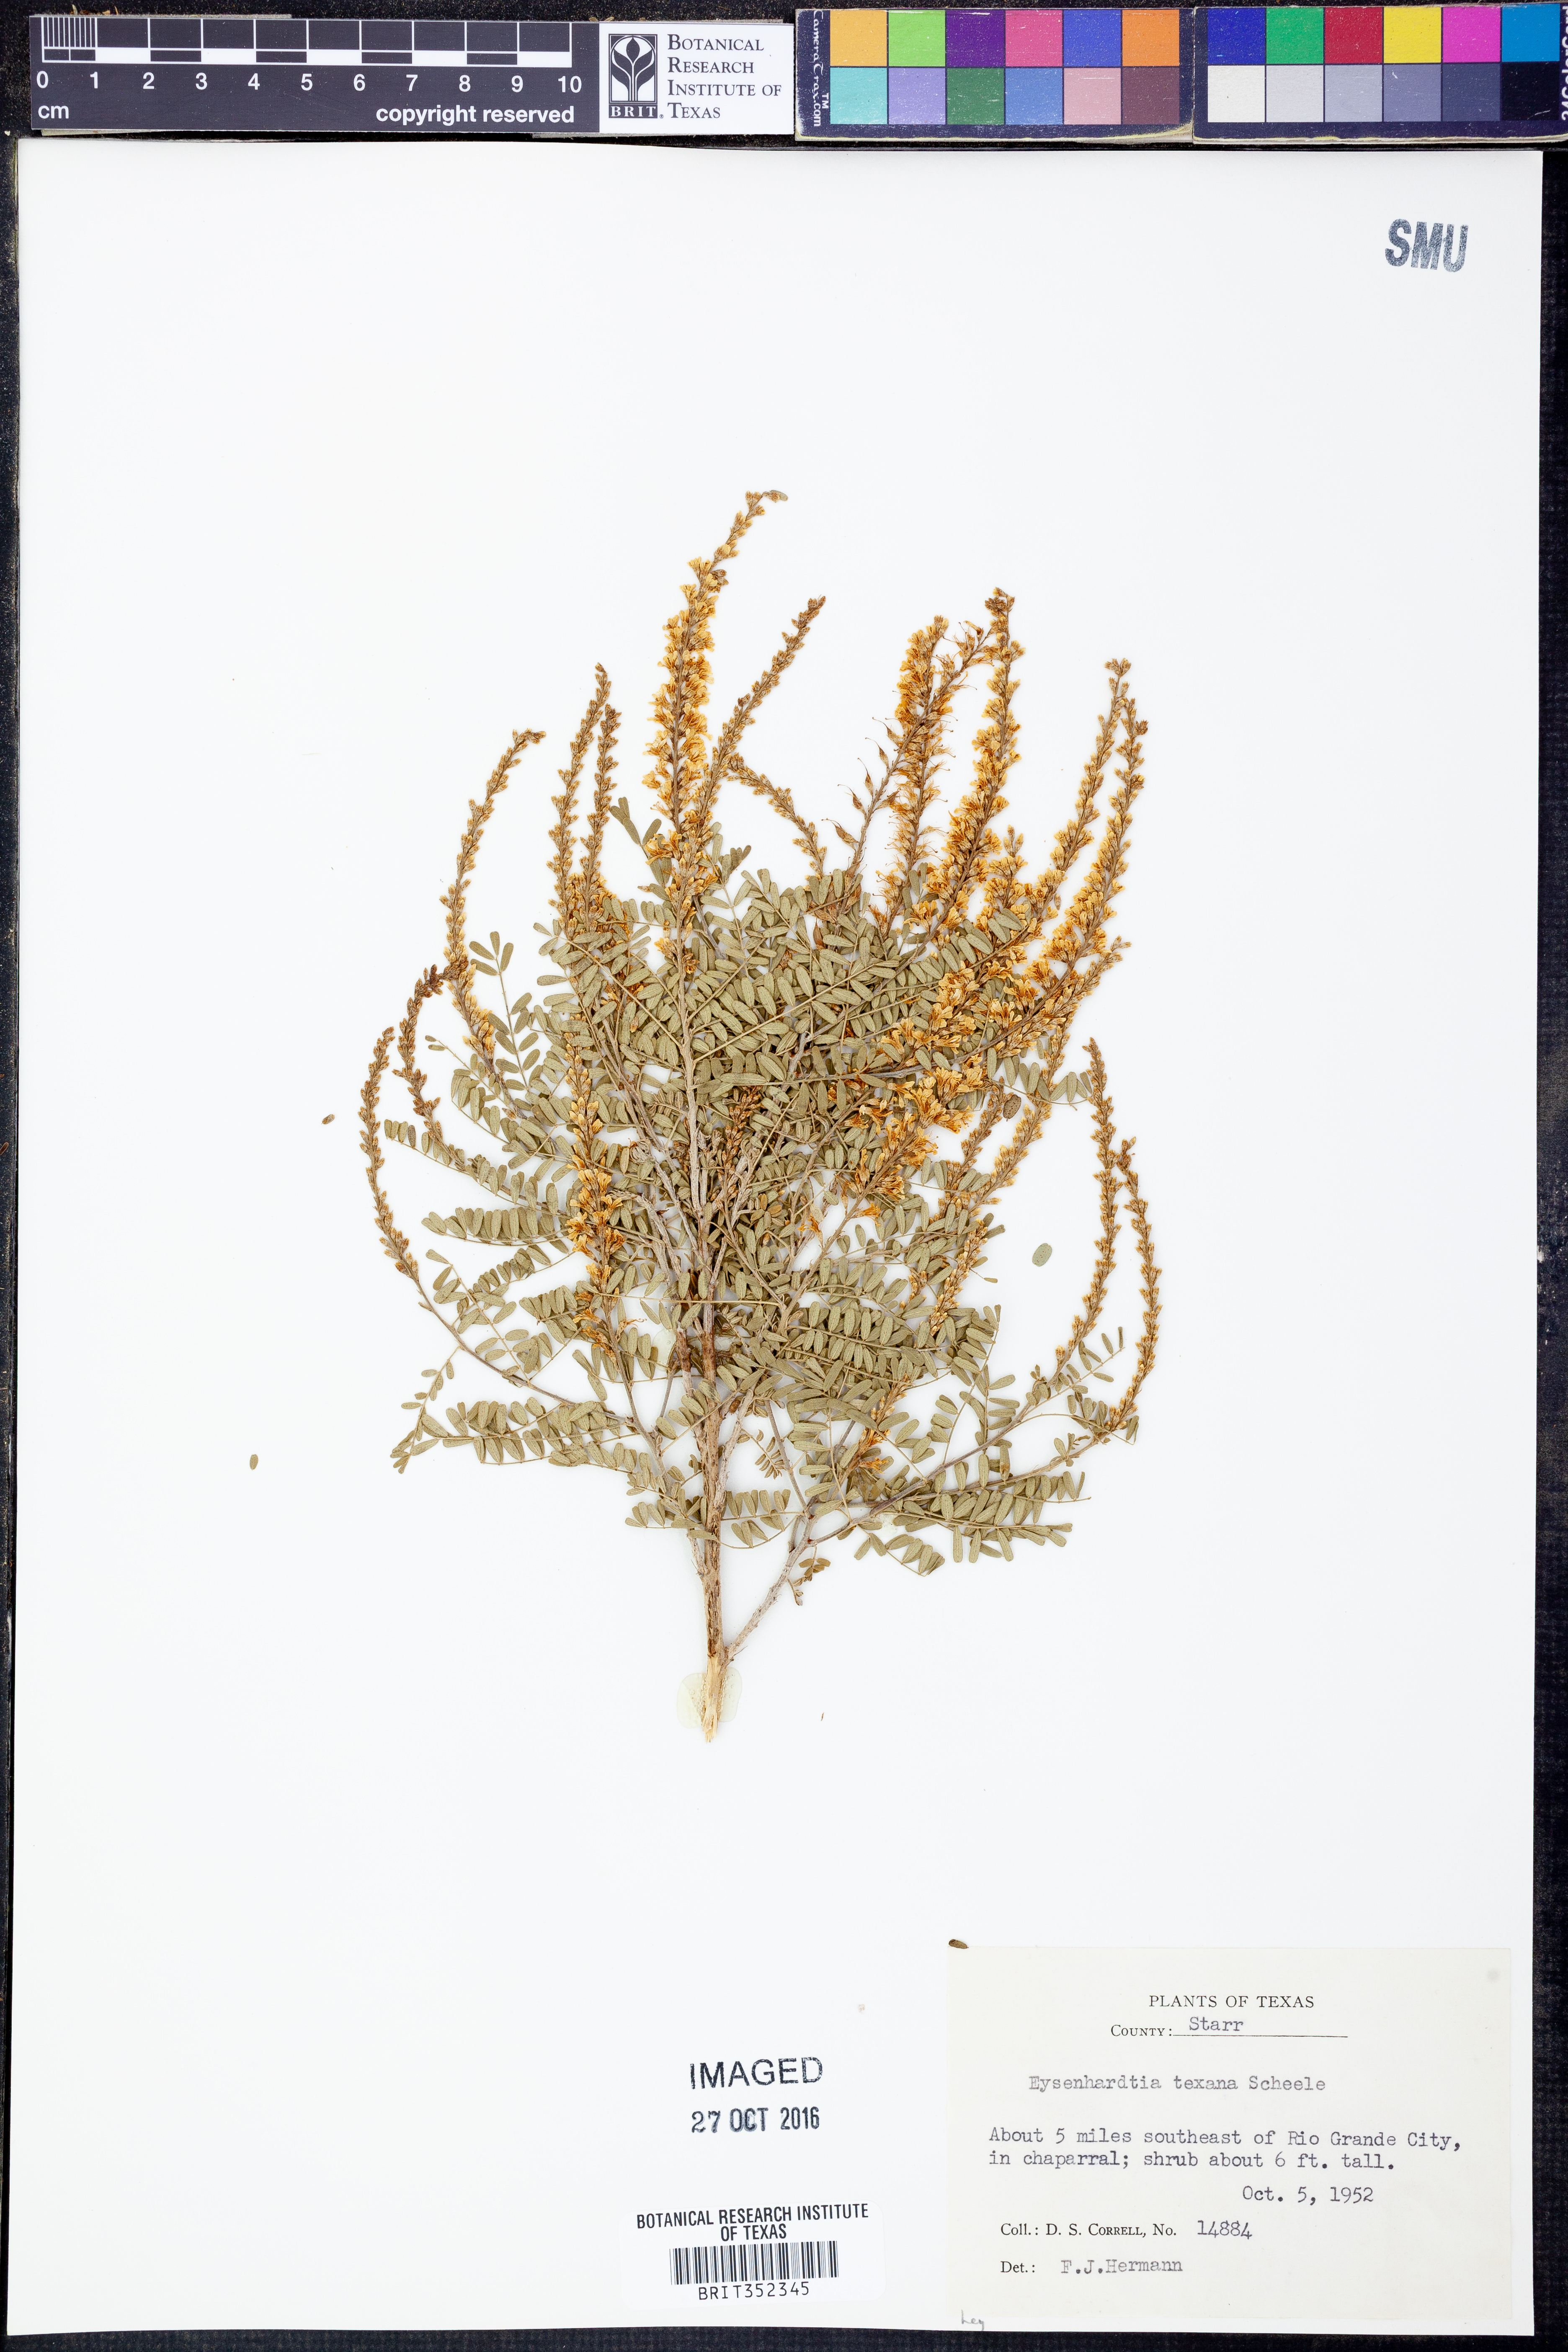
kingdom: Plantae
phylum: Tracheophyta
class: Magnoliopsida
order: Fabales
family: Fabaceae
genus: Eysenhardtia
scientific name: Eysenhardtia texana
